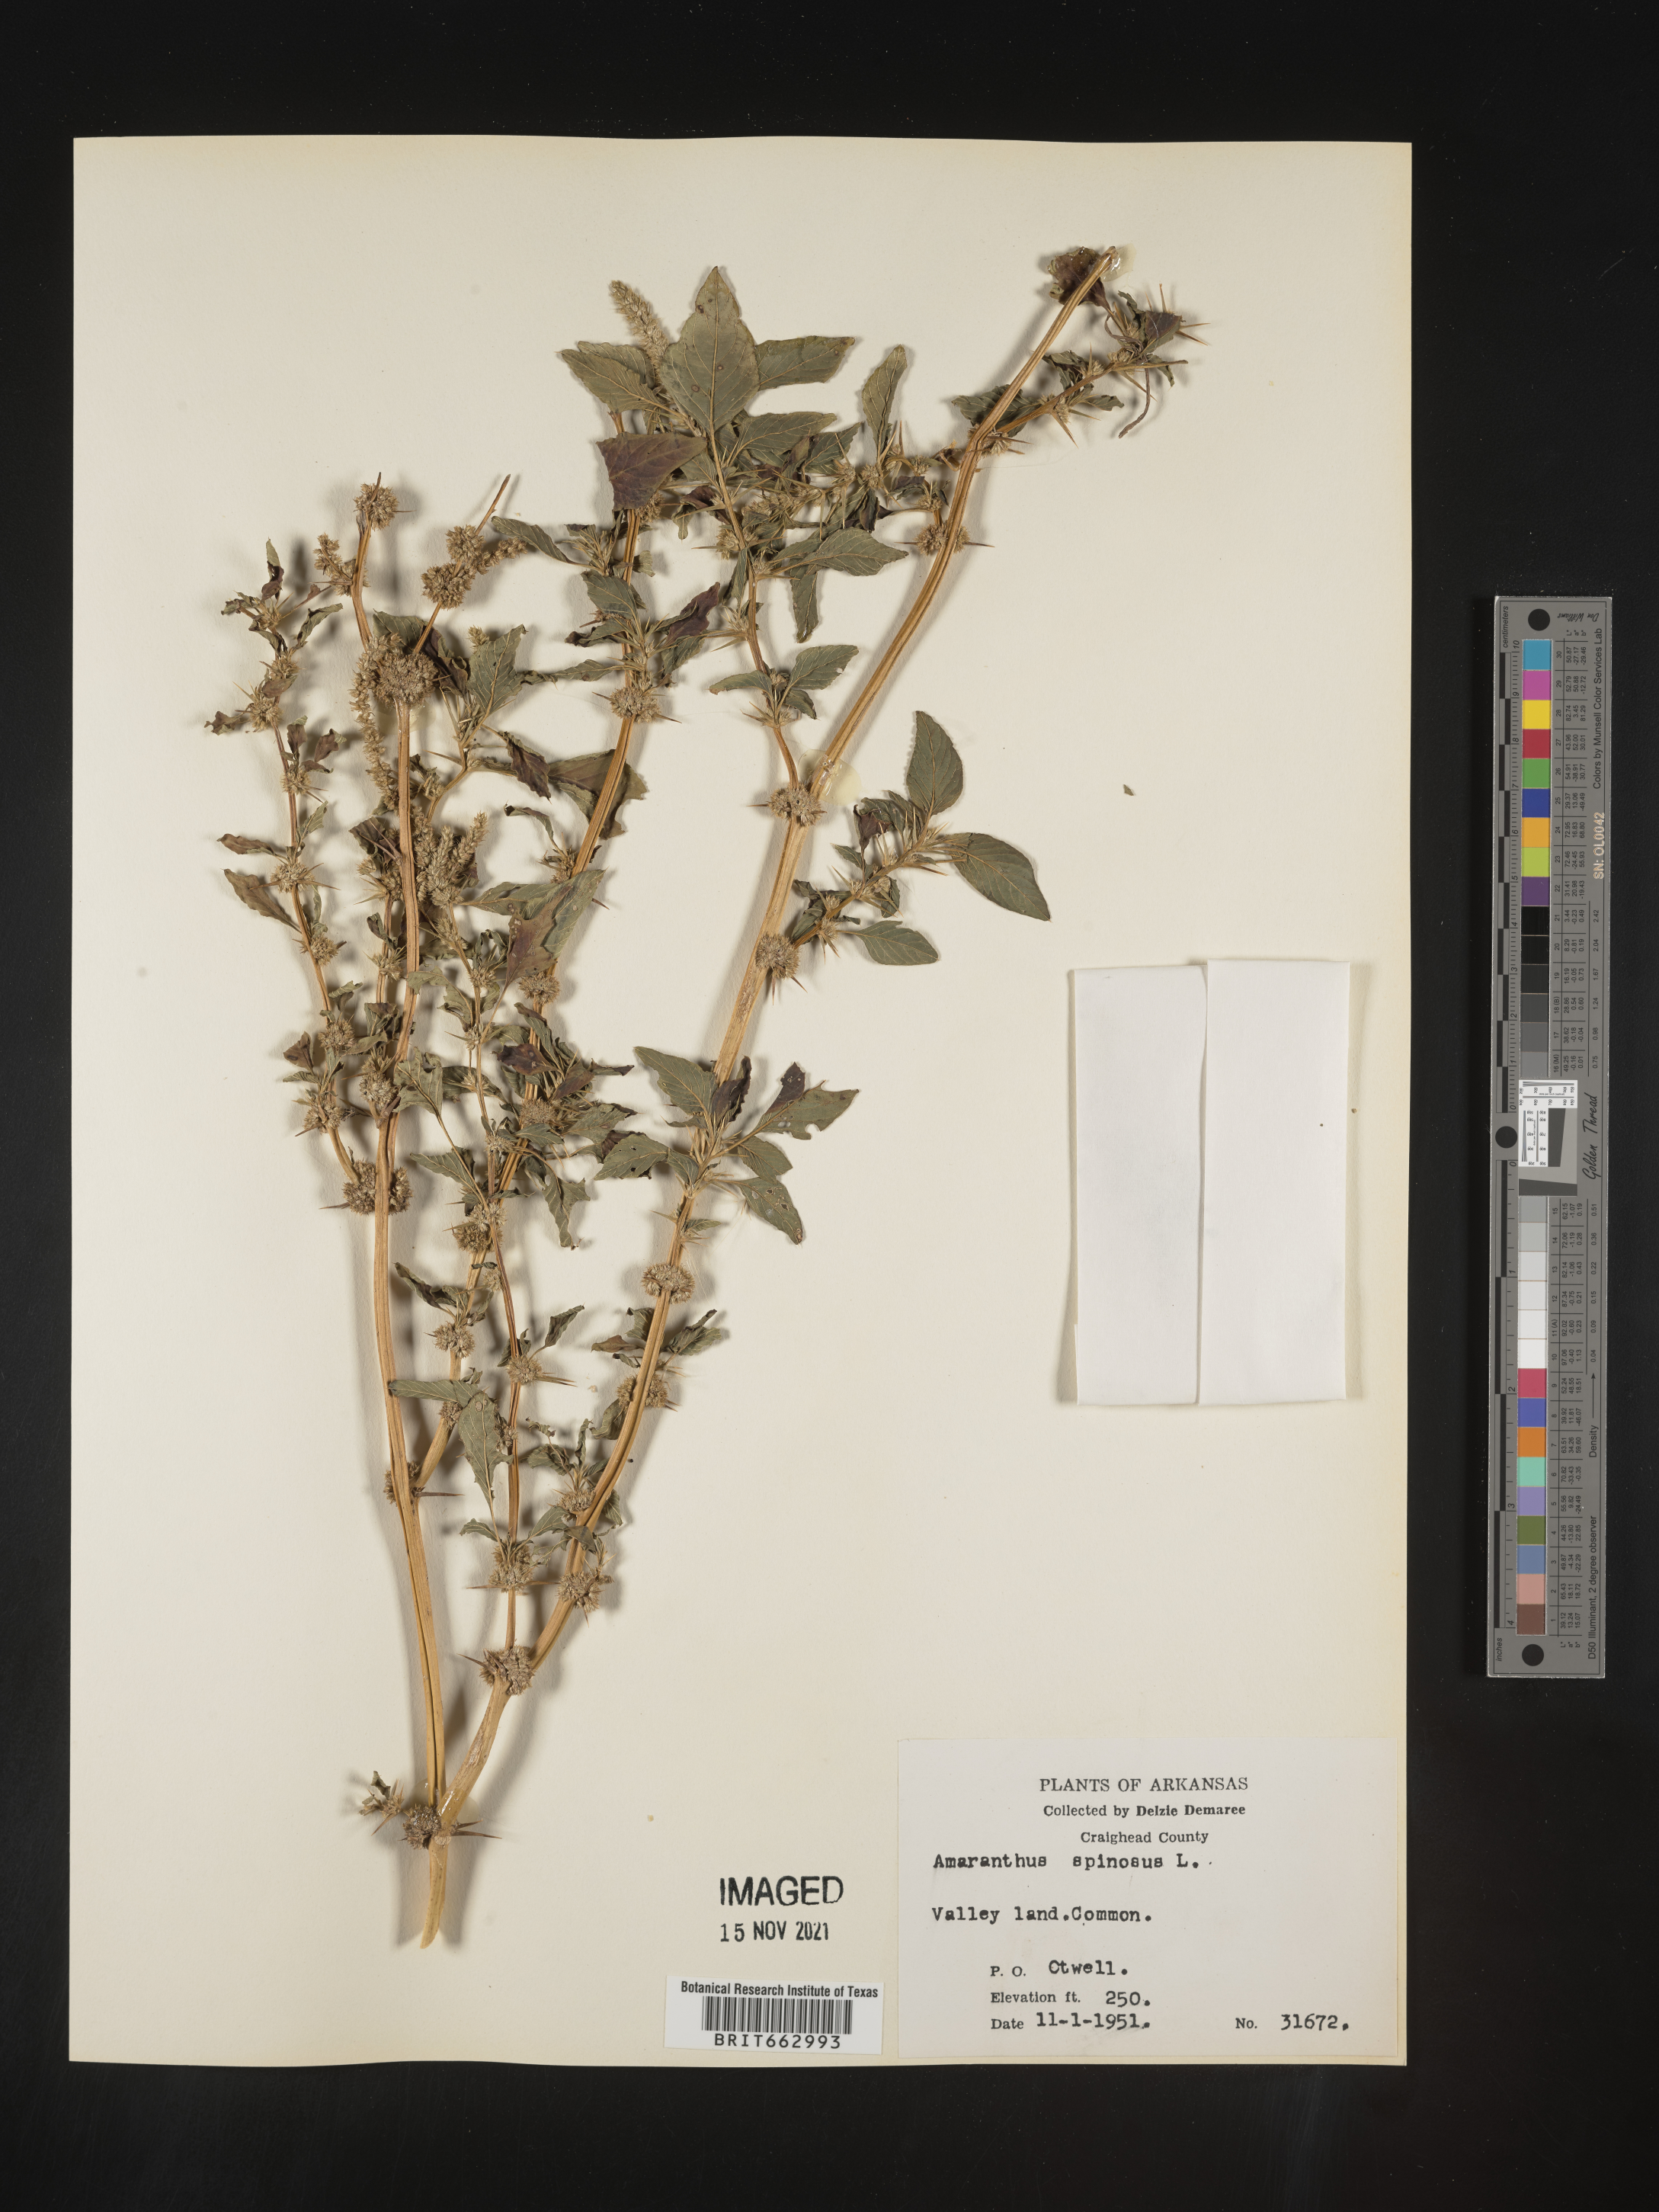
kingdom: Plantae
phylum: Tracheophyta
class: Magnoliopsida
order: Caryophyllales
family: Amaranthaceae
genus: Amaranthus
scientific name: Amaranthus spinosus
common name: Spiny amaranth
